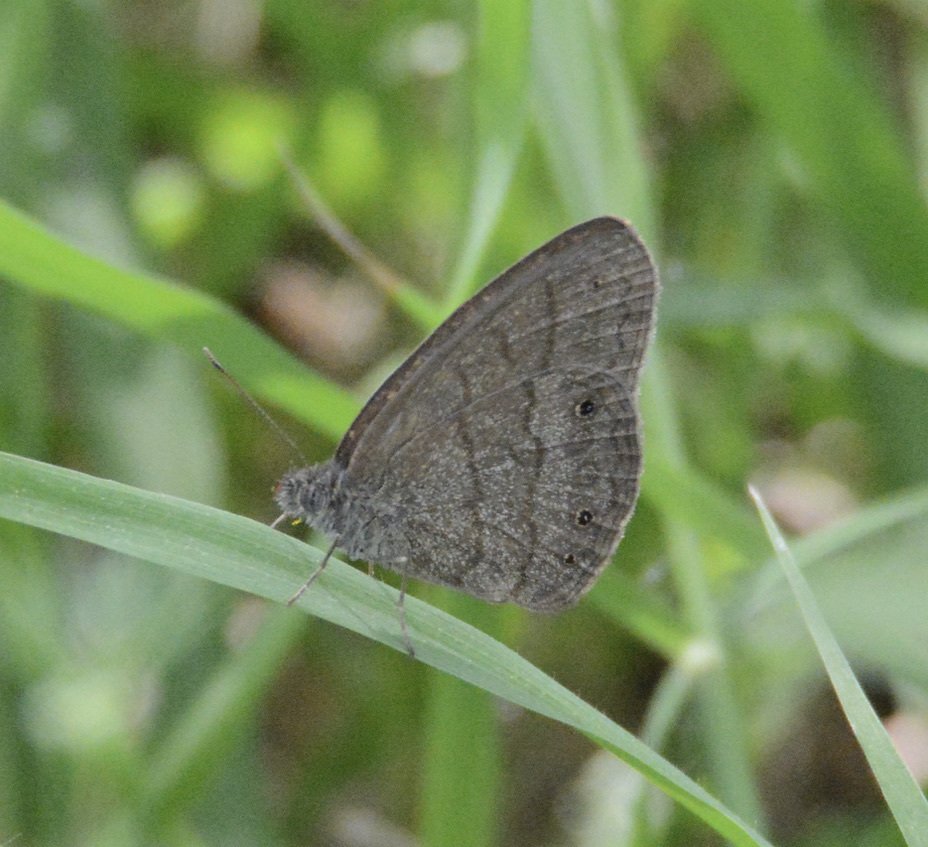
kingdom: Animalia
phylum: Arthropoda
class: Insecta
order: Lepidoptera
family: Nymphalidae
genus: Hermeuptychia
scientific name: Hermeuptychia hermybius
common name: South Texas Satyr
